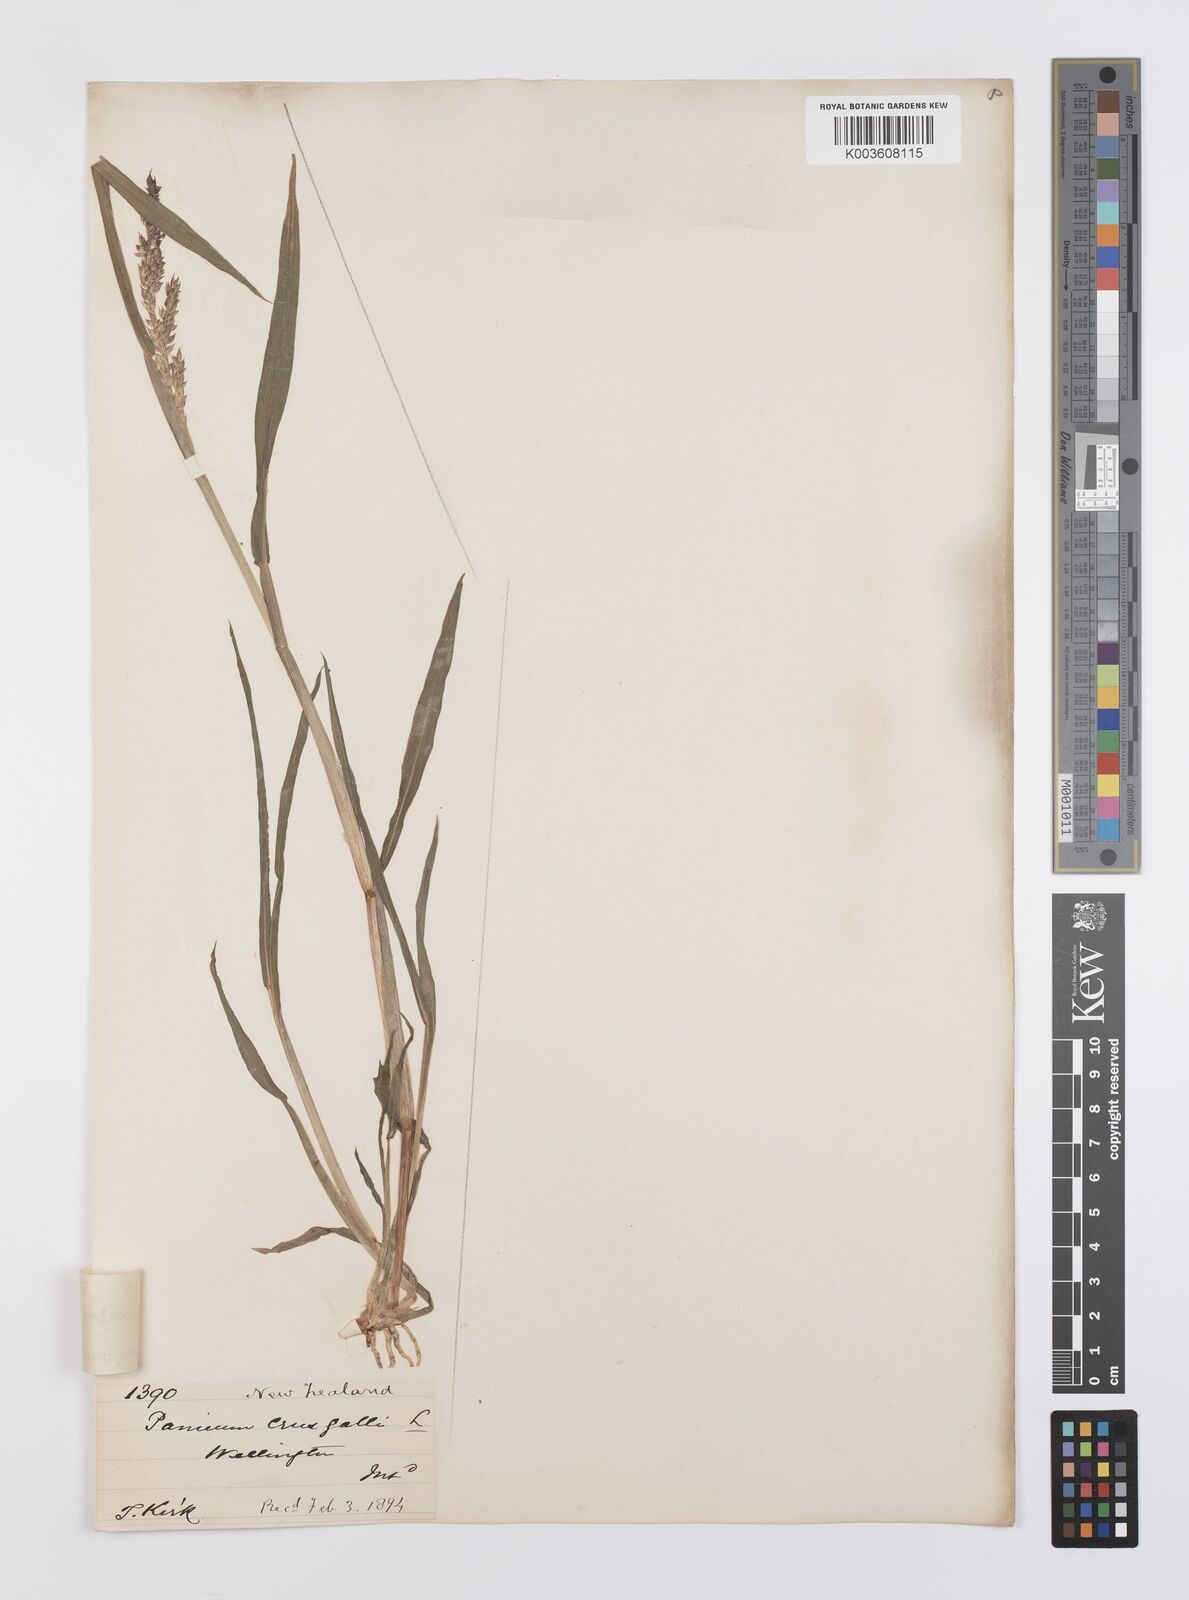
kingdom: Plantae
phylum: Tracheophyta
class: Liliopsida
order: Poales
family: Poaceae
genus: Echinochloa
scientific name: Echinochloa crus-galli
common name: Cockspur
